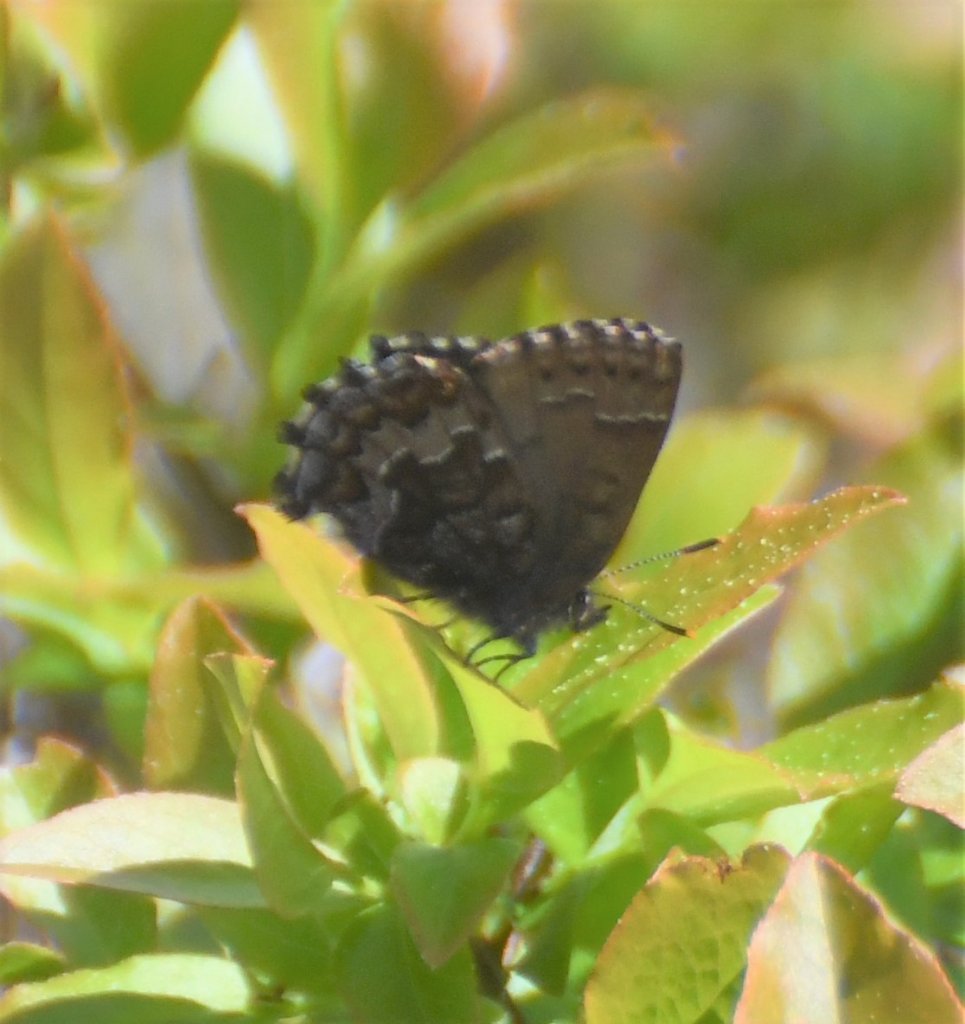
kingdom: Animalia
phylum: Arthropoda
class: Insecta
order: Lepidoptera
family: Lycaenidae
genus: Incisalia
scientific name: Incisalia niphon
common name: Eastern Pine Elfin
